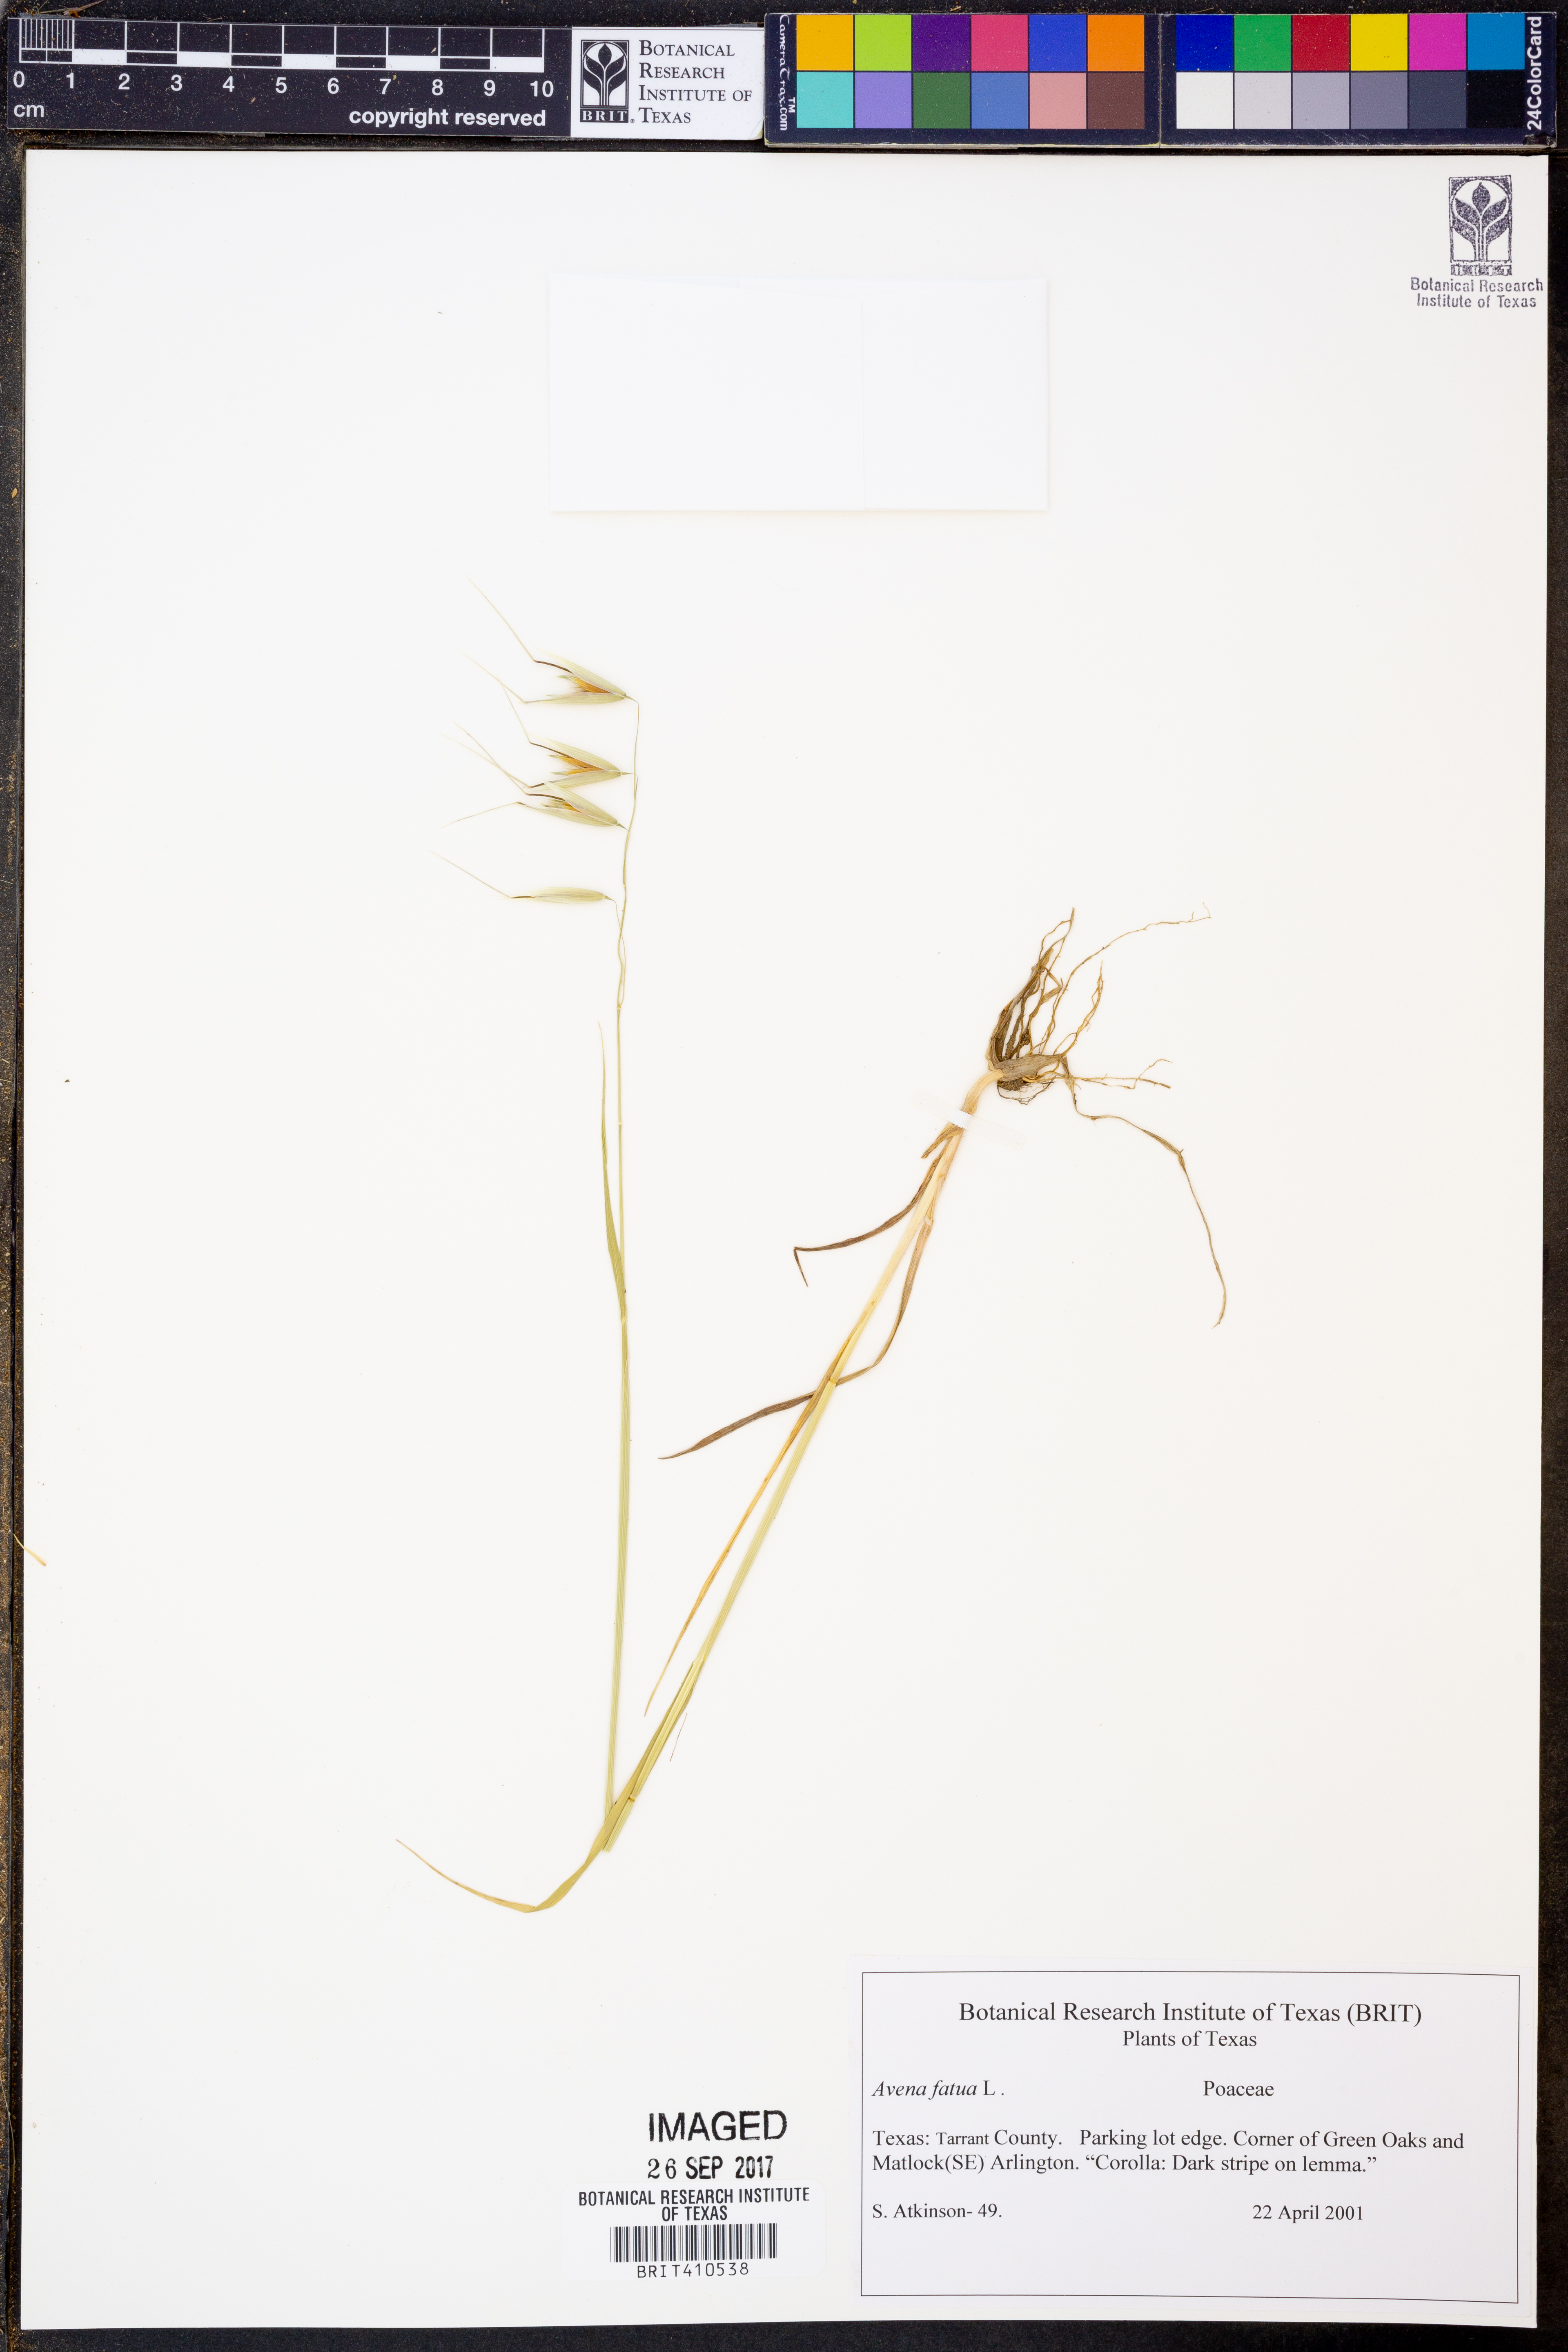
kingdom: Plantae
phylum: Tracheophyta
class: Liliopsida
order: Poales
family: Poaceae
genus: Avena
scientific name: Avena fatua
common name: Wild oat
